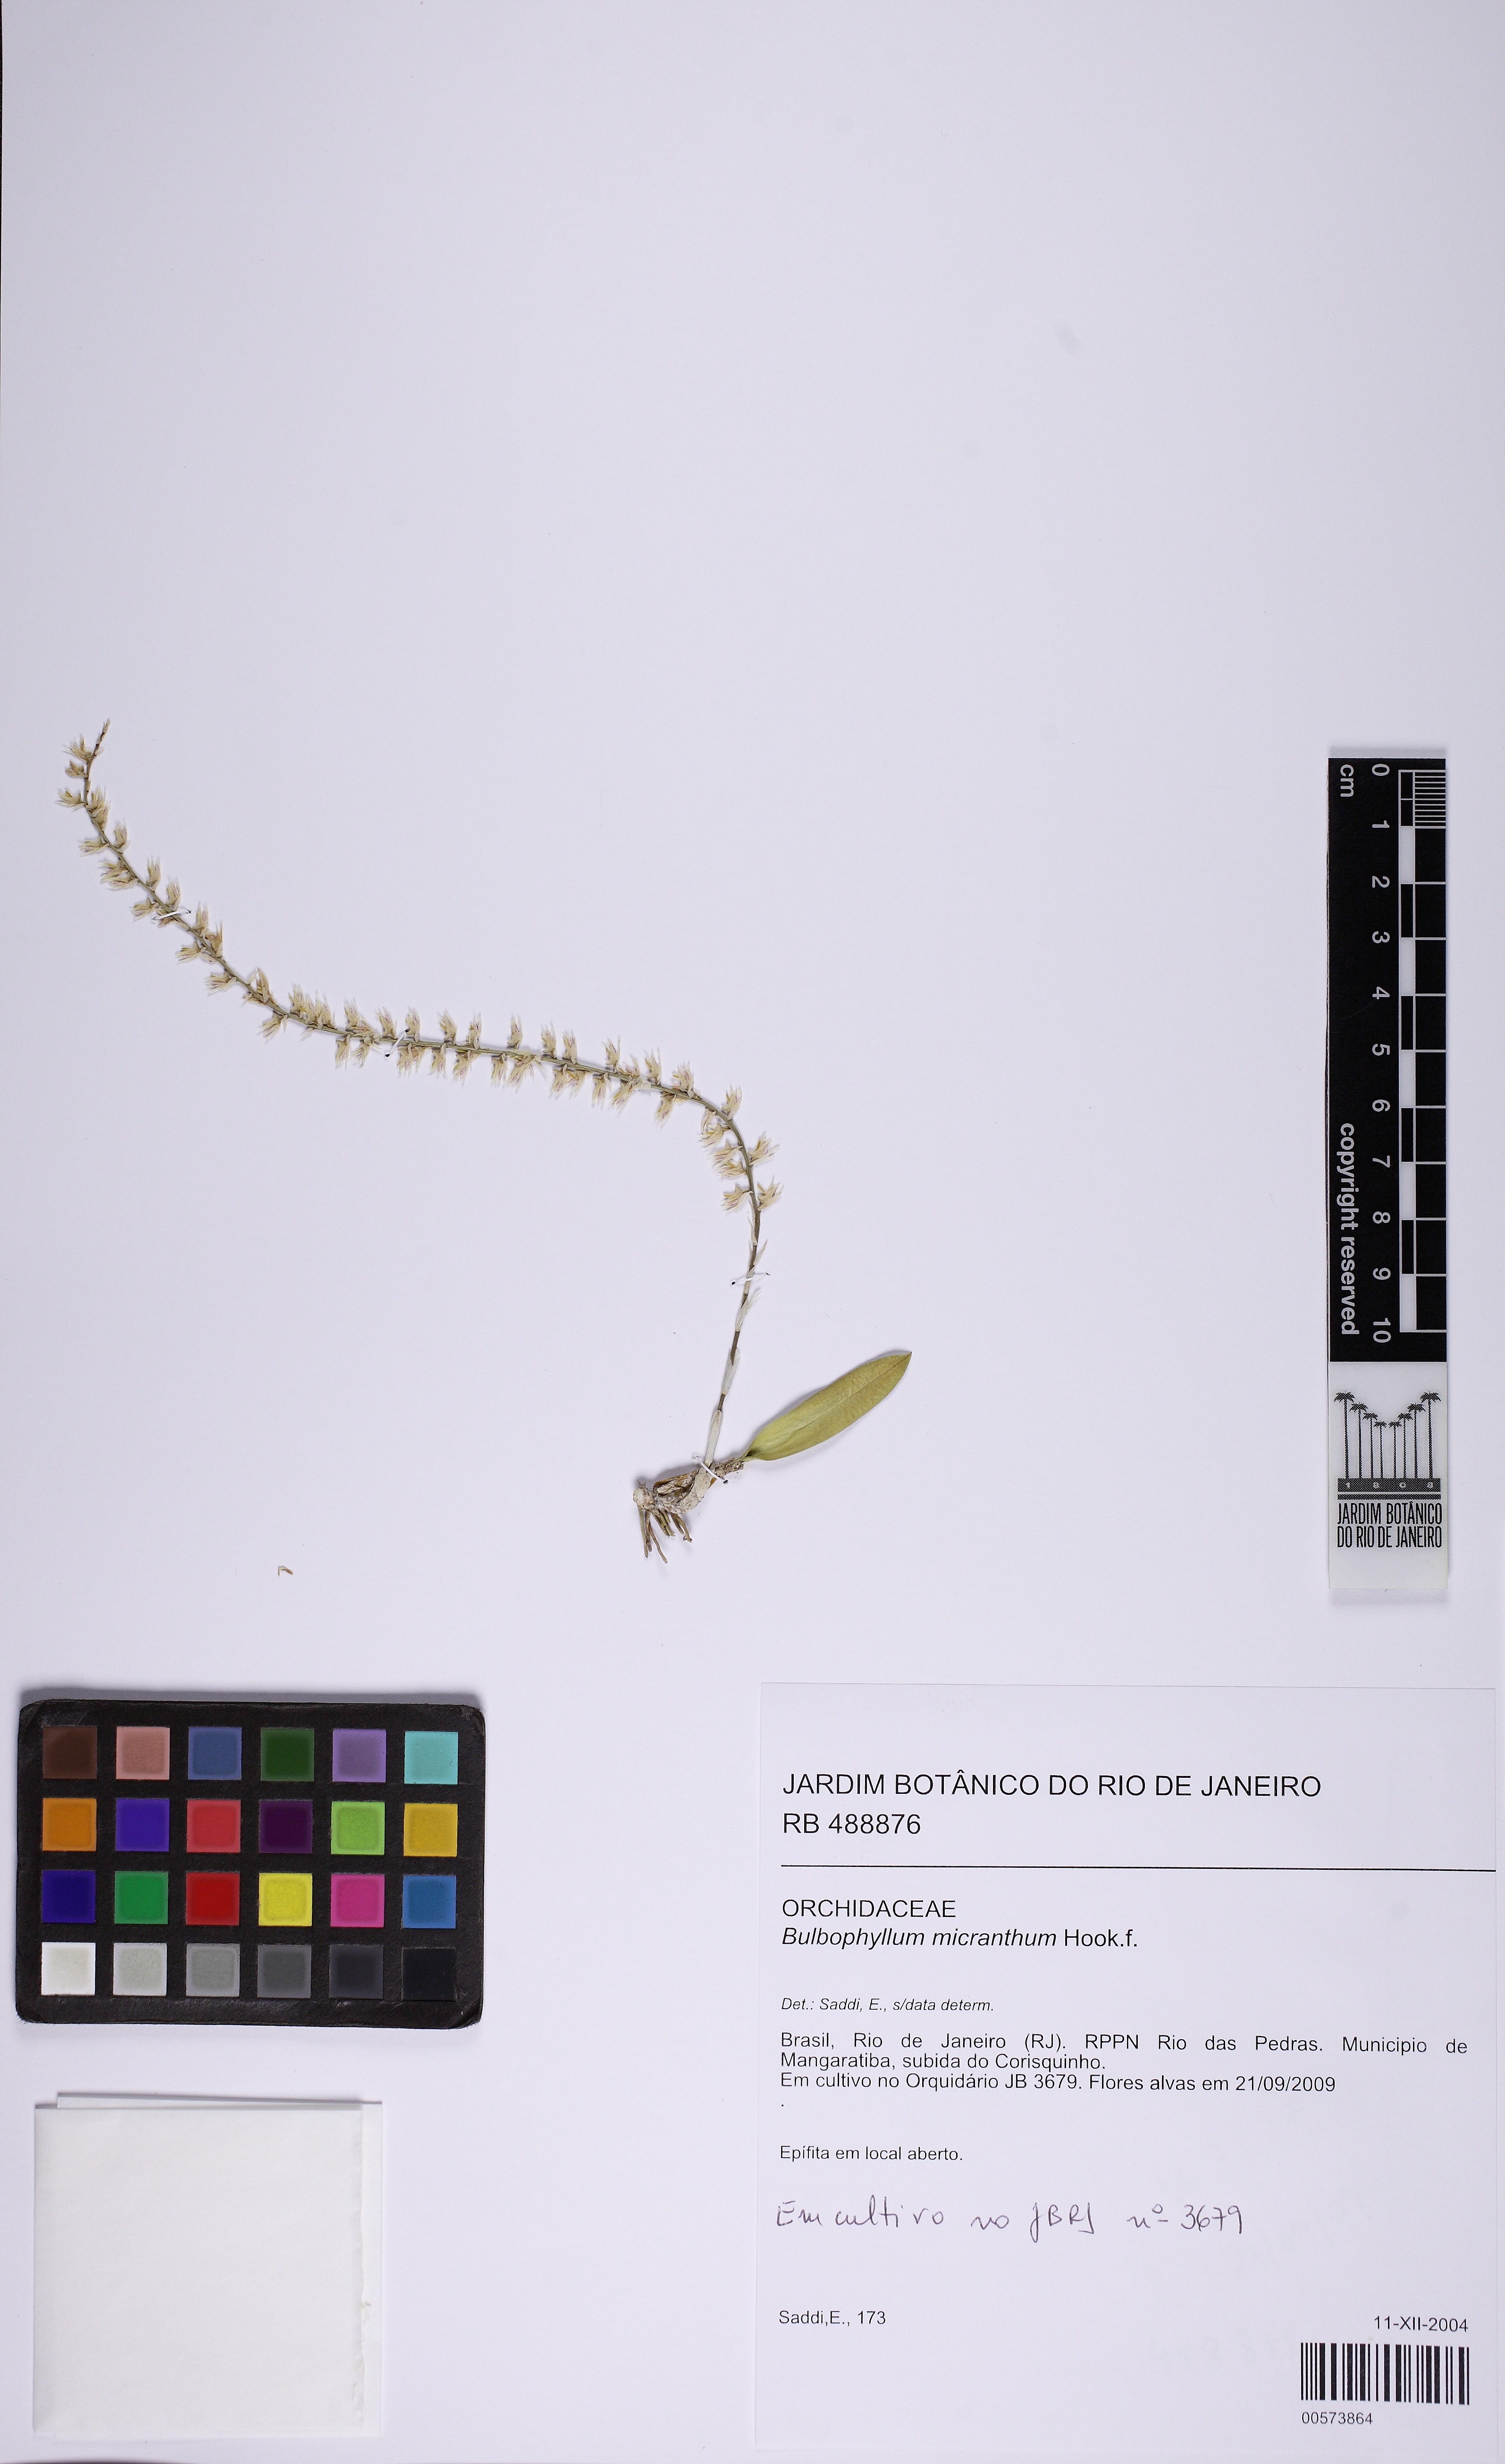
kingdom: Plantae
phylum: Tracheophyta
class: Liliopsida
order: Asparagales
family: Orchidaceae
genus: Bulbophyllum
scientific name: Bulbophyllum micranthum
